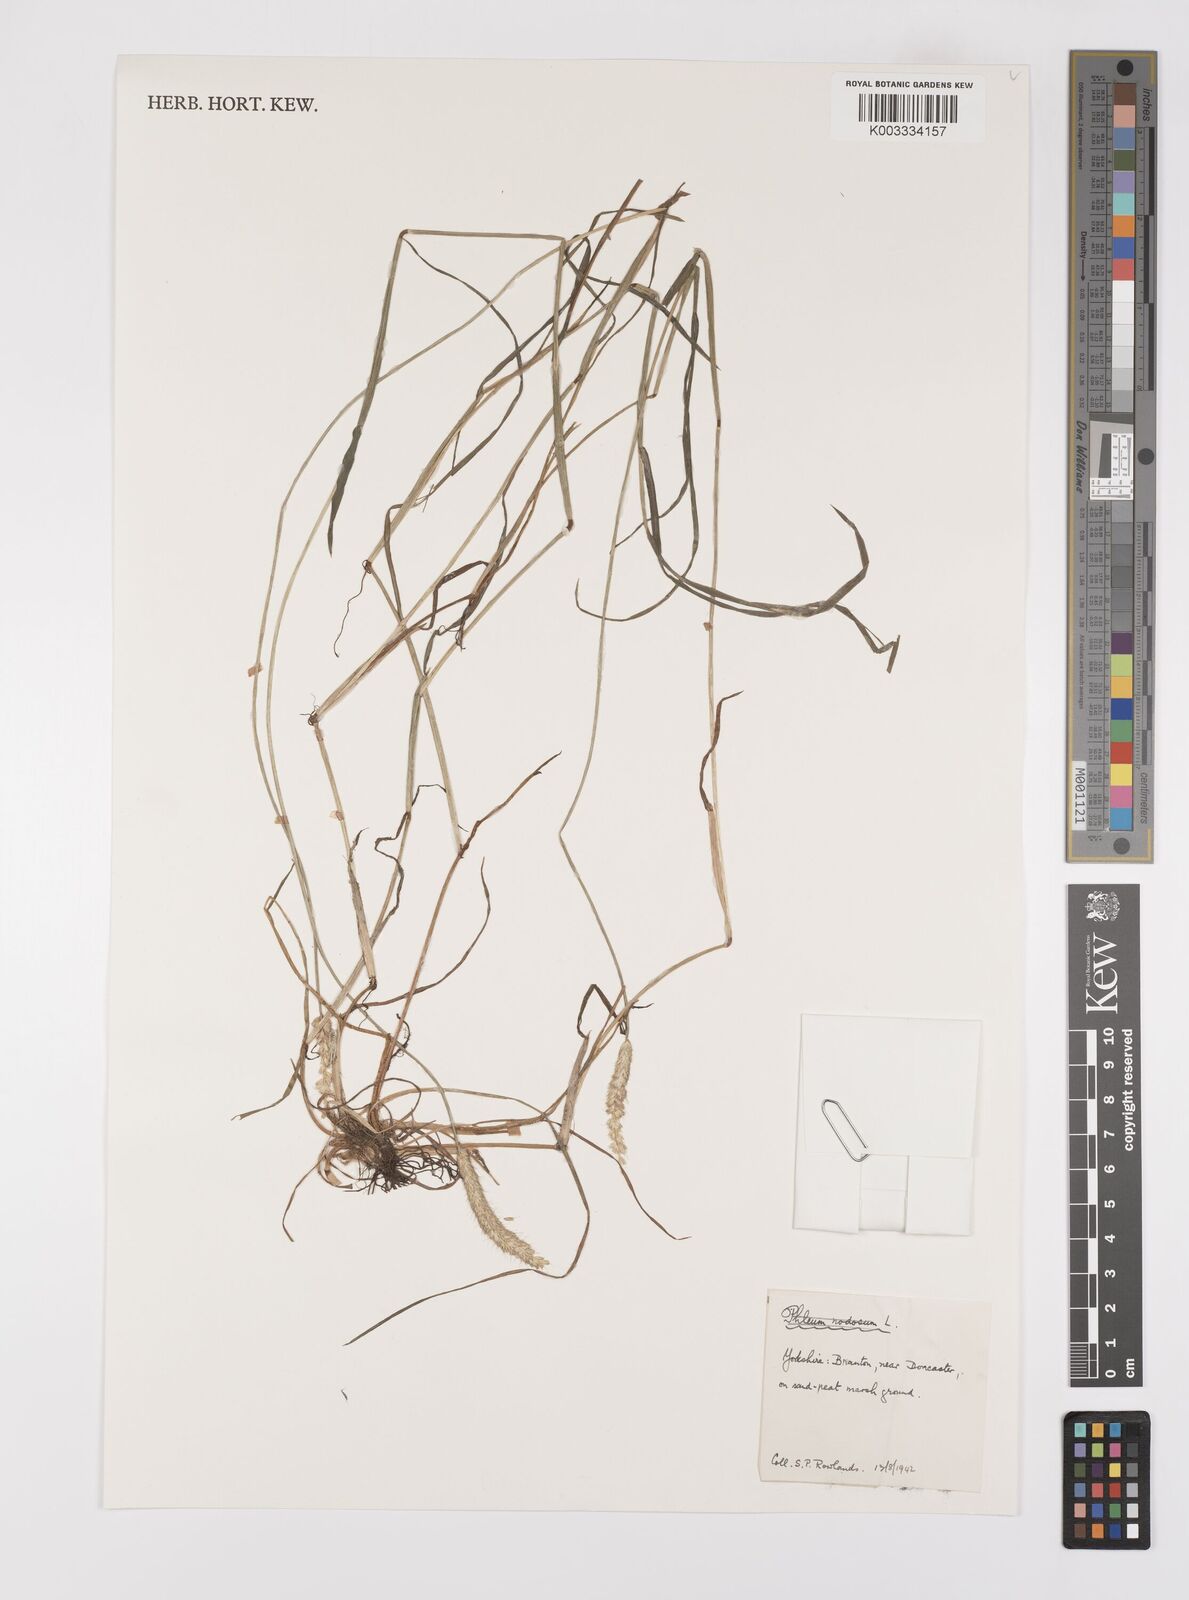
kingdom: Plantae
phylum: Tracheophyta
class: Liliopsida
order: Poales
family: Poaceae
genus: Alopecurus
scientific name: Alopecurus geniculatus
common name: Water foxtail
